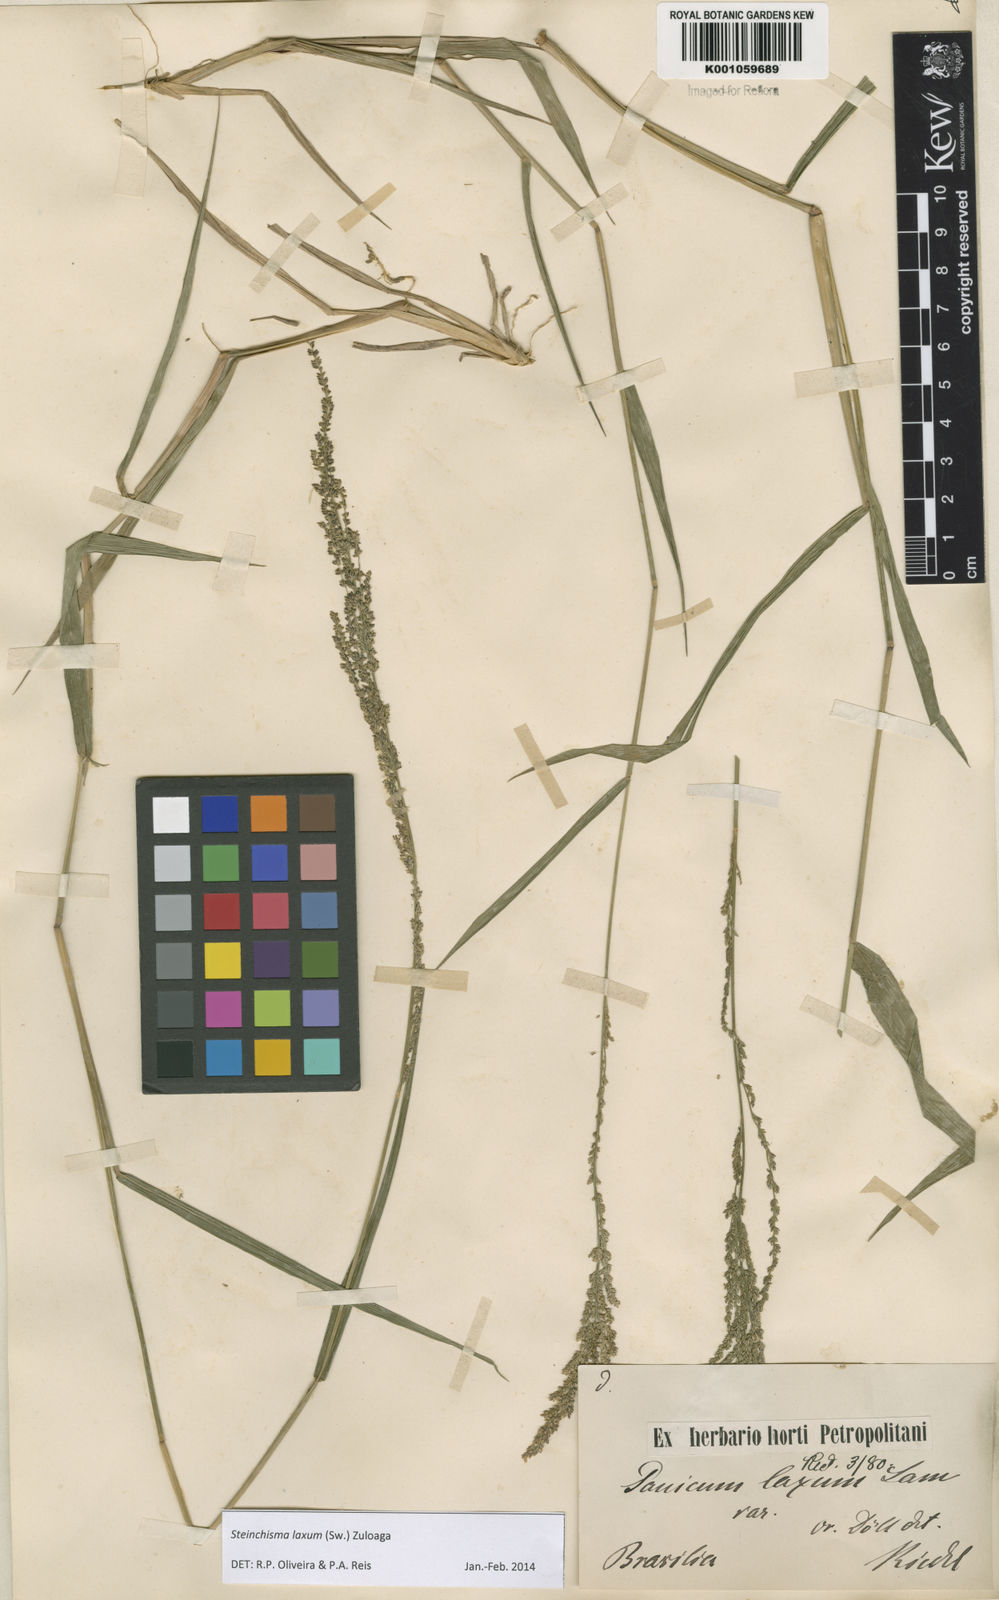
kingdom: Plantae
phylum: Tracheophyta
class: Liliopsida
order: Poales
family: Poaceae
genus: Steinchisma
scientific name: Steinchisma laxum
